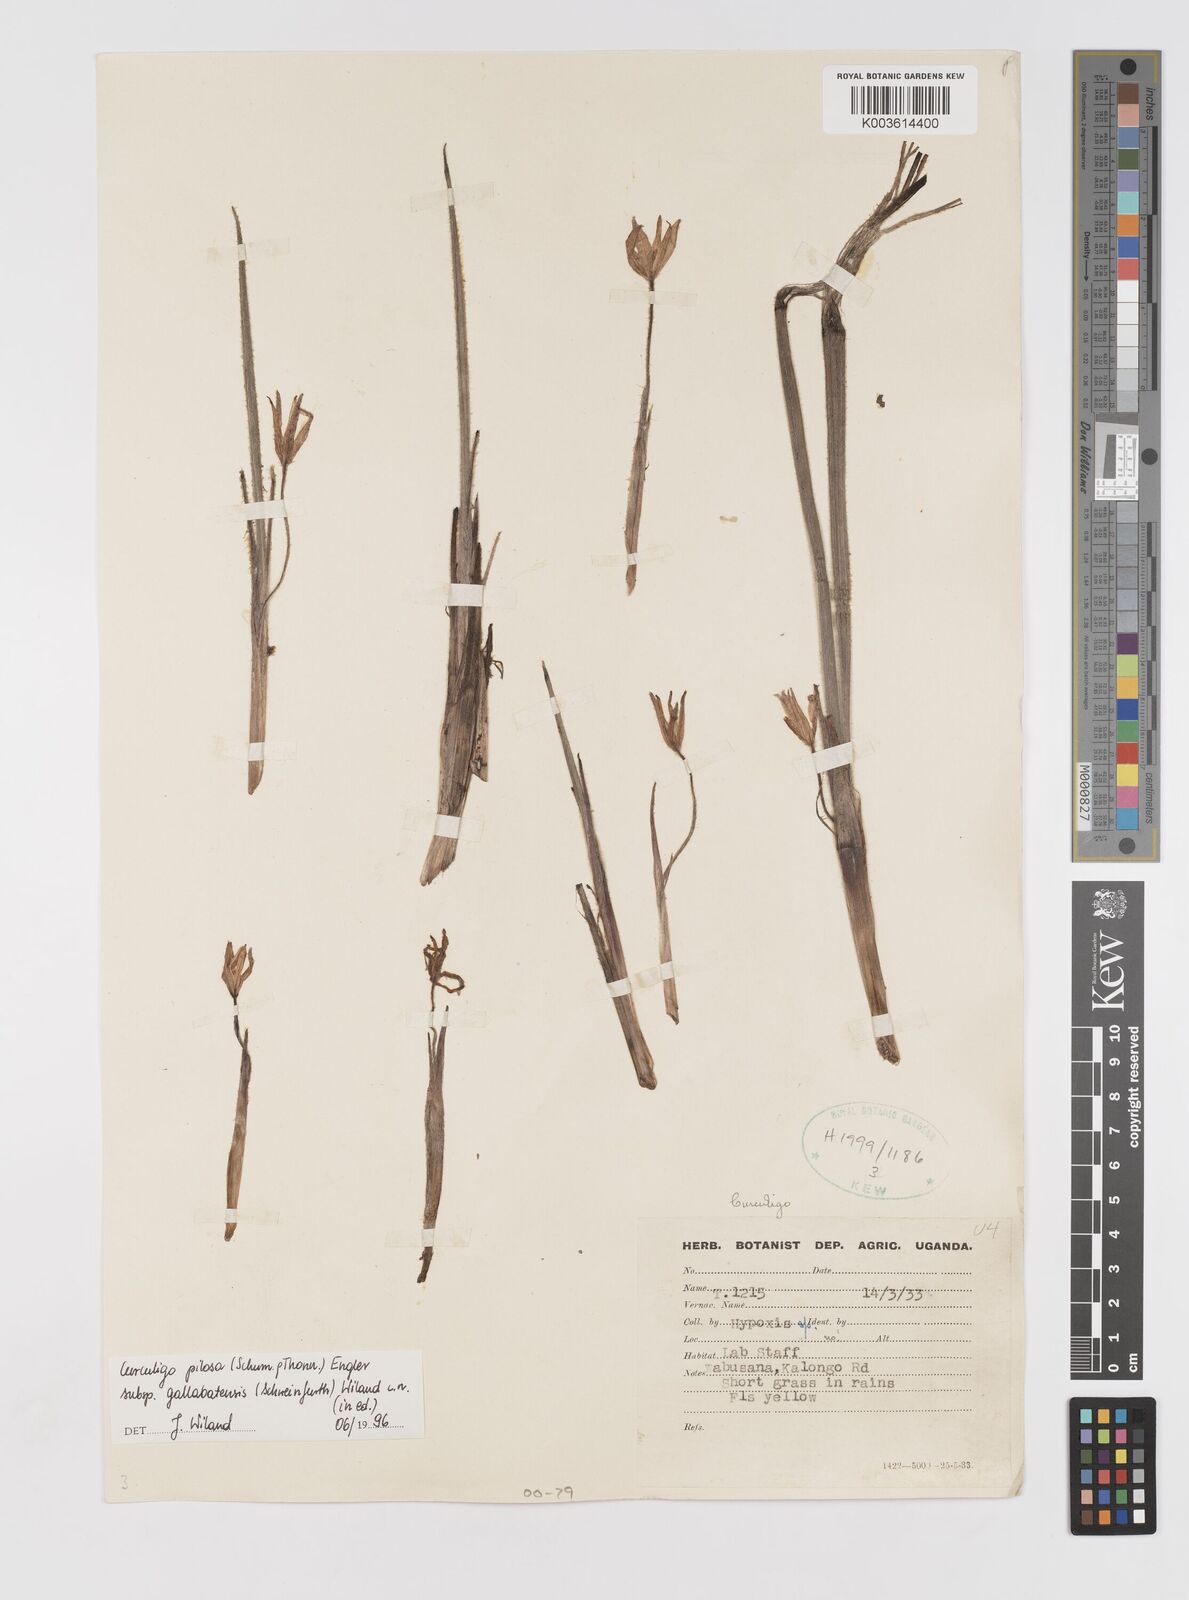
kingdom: Plantae
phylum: Tracheophyta
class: Liliopsida
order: Asparagales
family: Hypoxidaceae
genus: Curculigo
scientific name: Curculigo pilosa
